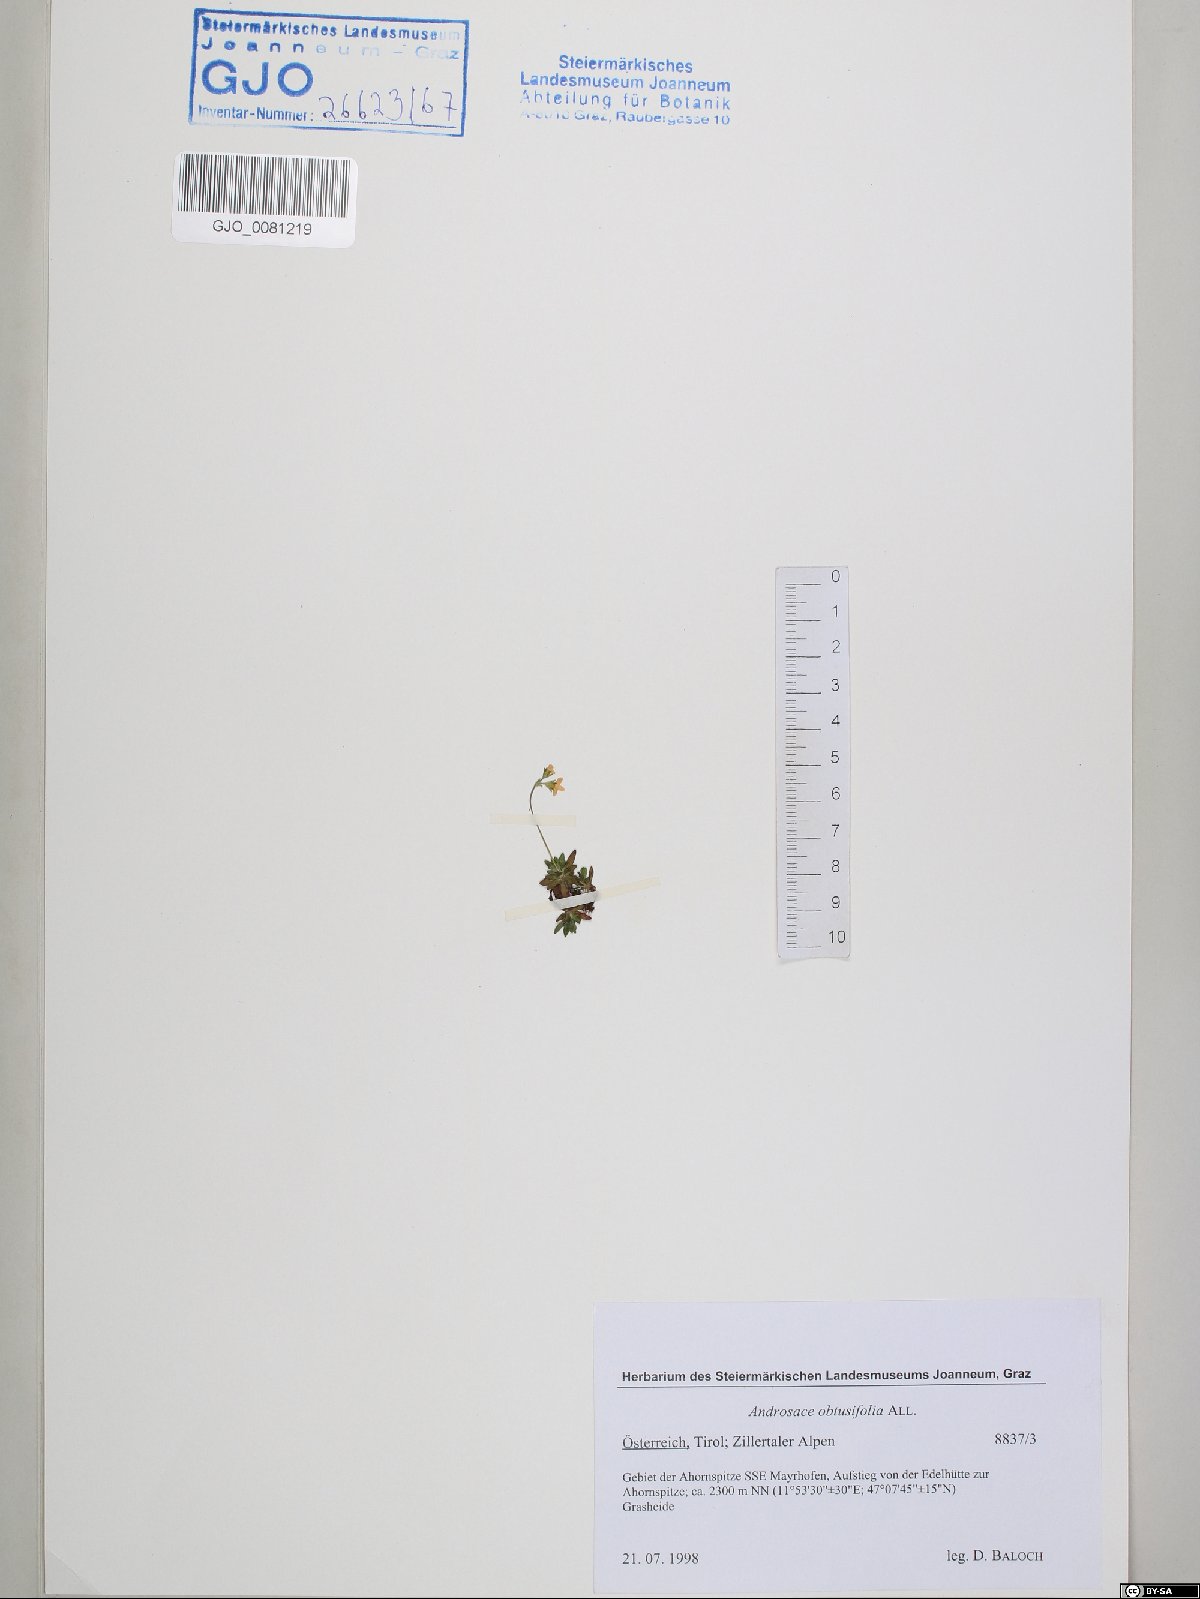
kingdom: Plantae
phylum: Tracheophyta
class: Magnoliopsida
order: Ericales
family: Primulaceae
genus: Androsace
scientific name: Androsace obtusifolia
